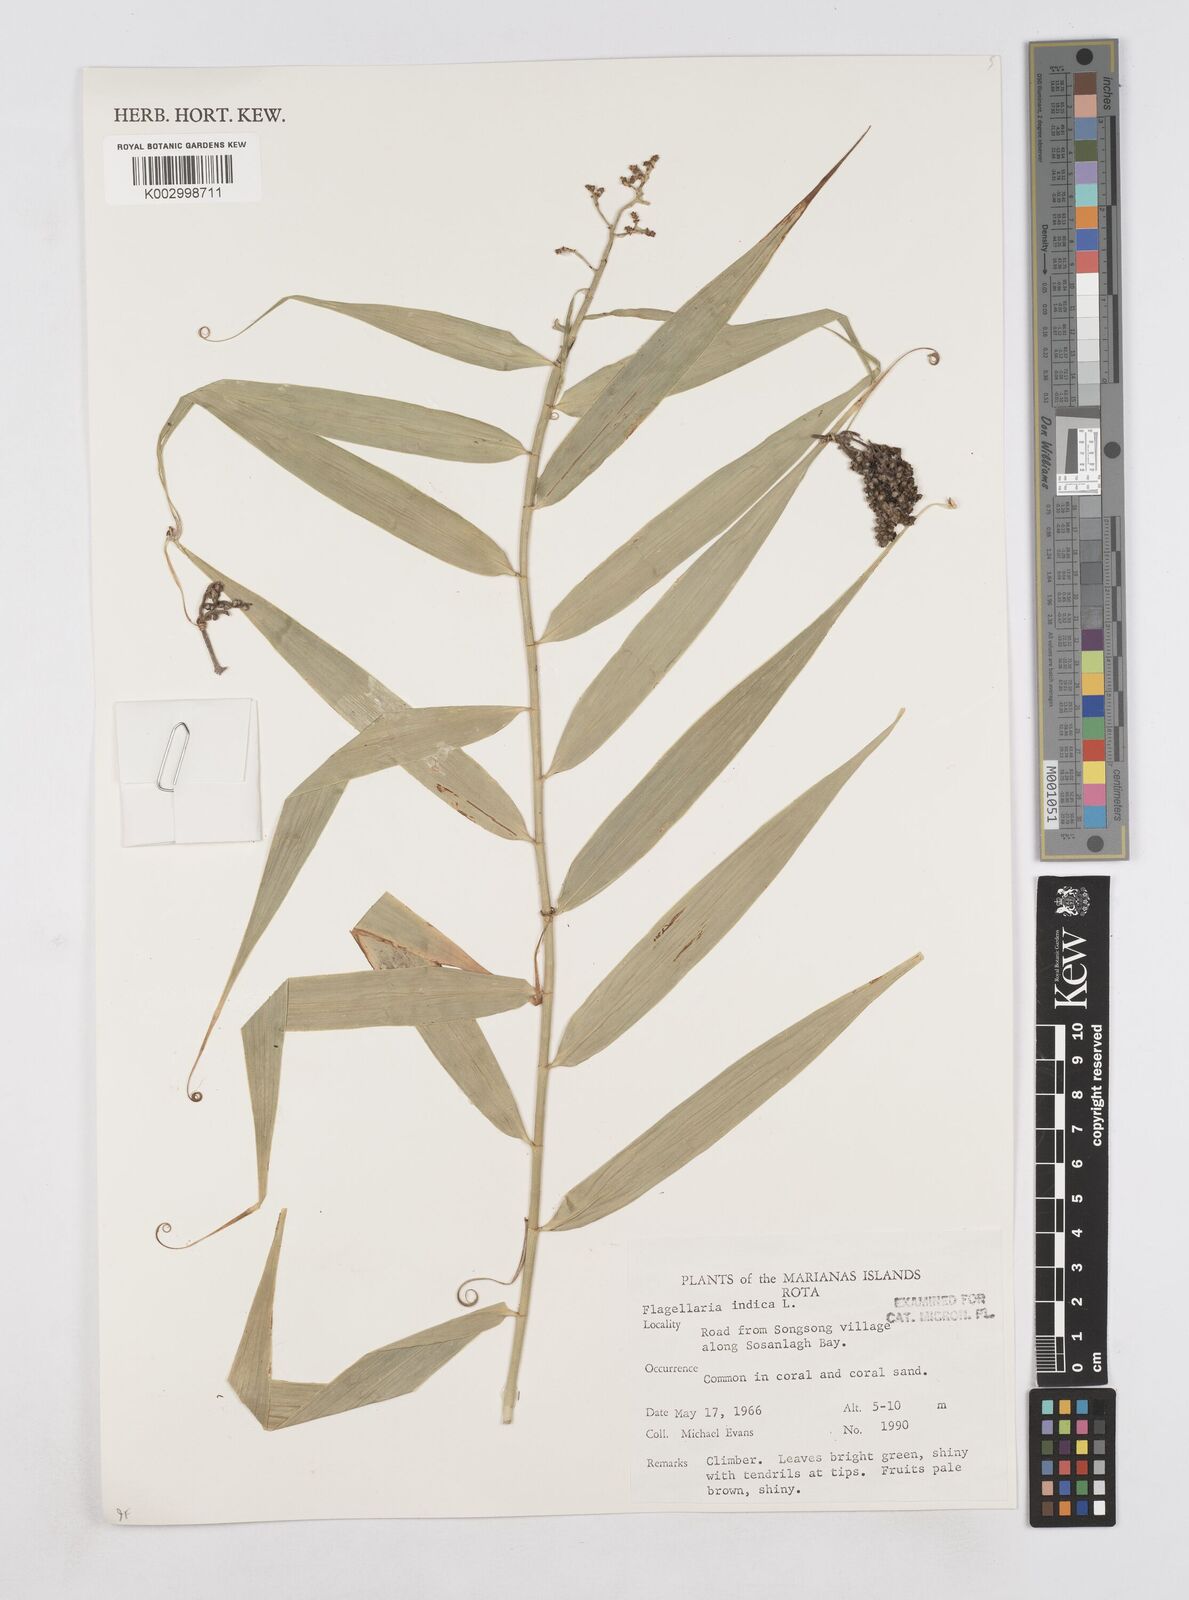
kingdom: Plantae
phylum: Tracheophyta
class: Liliopsida
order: Poales
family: Flagellariaceae
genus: Flagellaria
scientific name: Flagellaria indica
